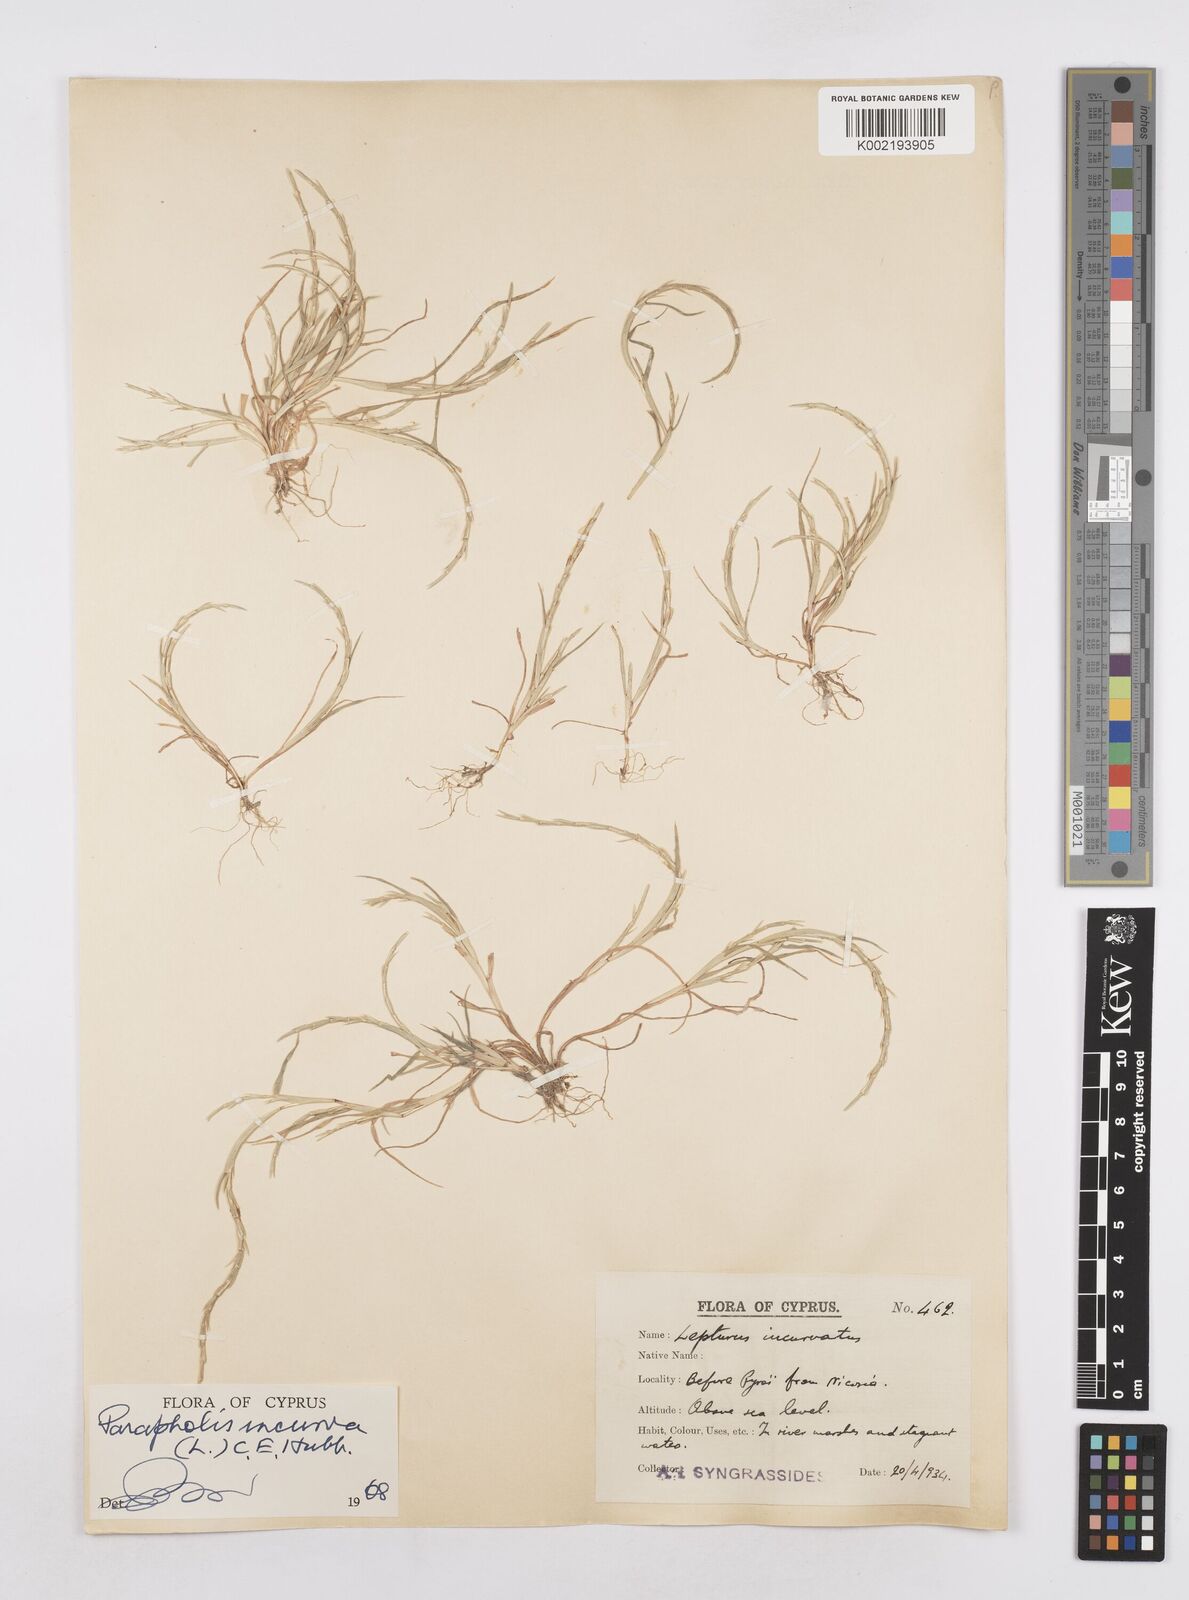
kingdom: Plantae
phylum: Tracheophyta
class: Liliopsida
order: Poales
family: Poaceae
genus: Parapholis
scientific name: Parapholis incurva
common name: Curved sicklegrass
